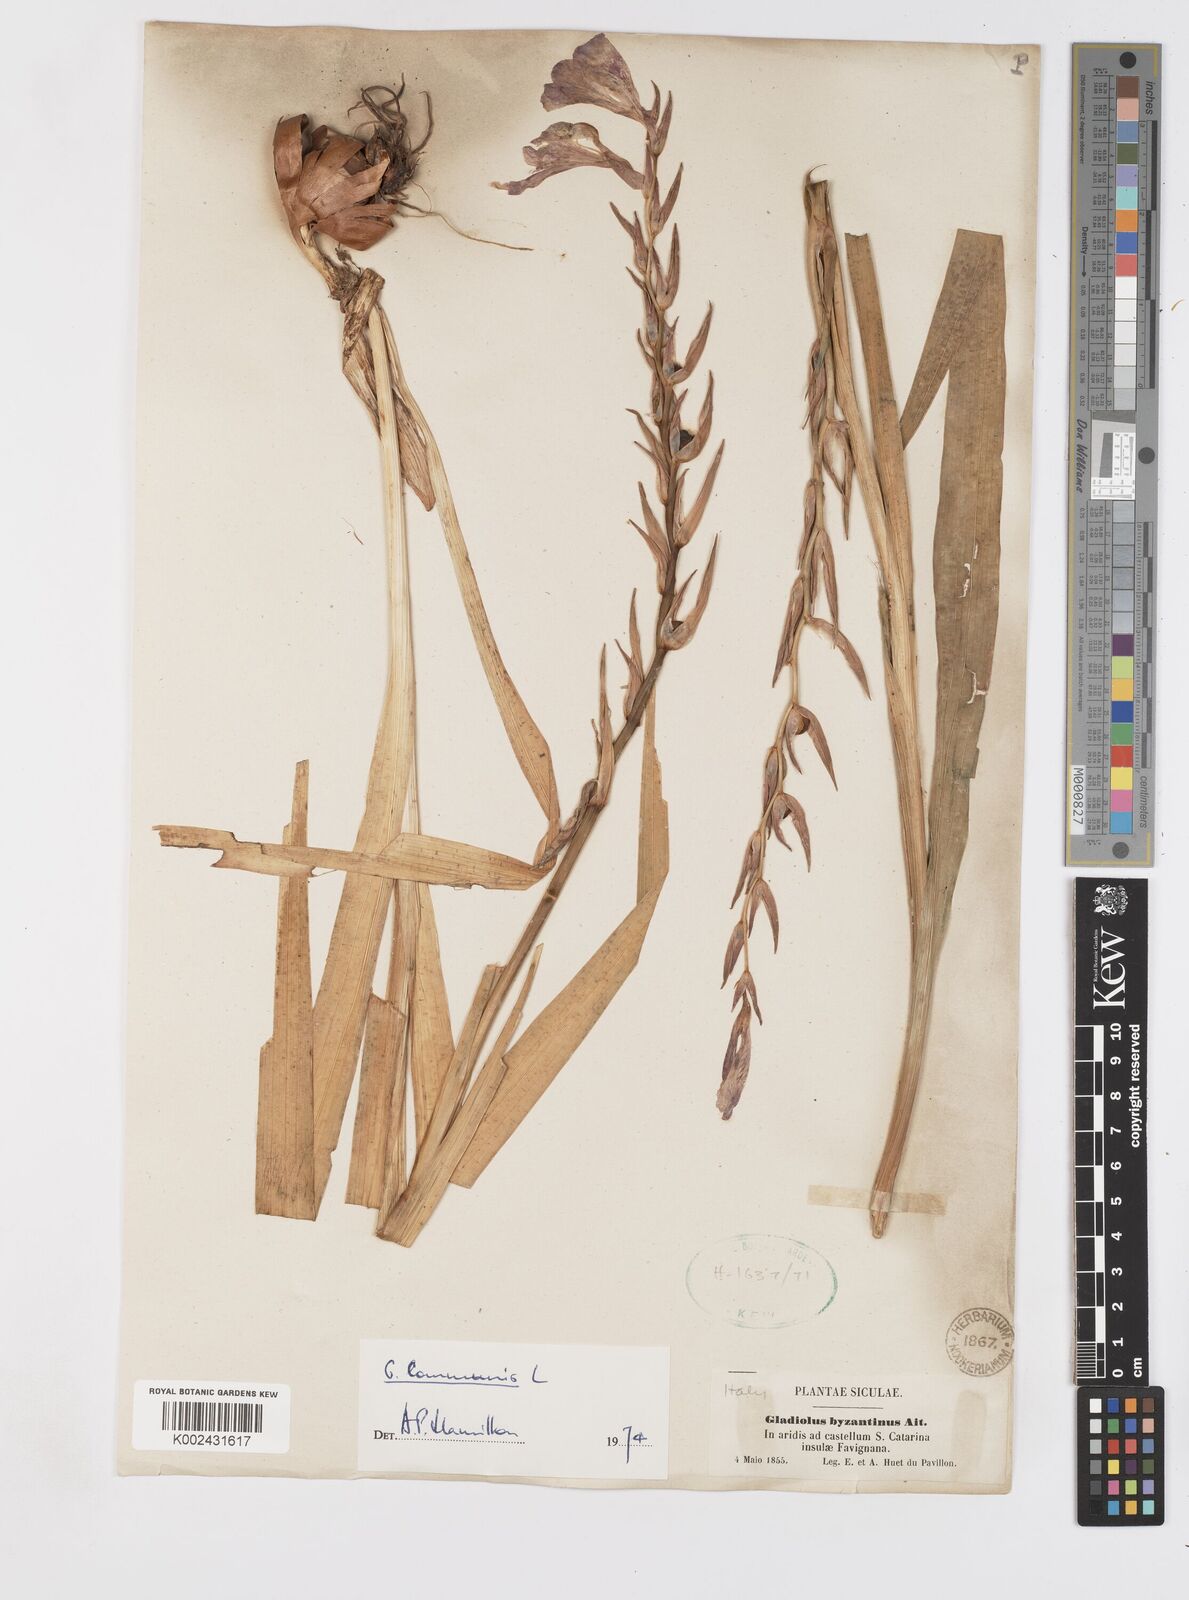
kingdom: Plantae
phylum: Tracheophyta
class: Liliopsida
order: Asparagales
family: Iridaceae
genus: Gladiolus
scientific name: Gladiolus communis
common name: Eastern gladiolus
